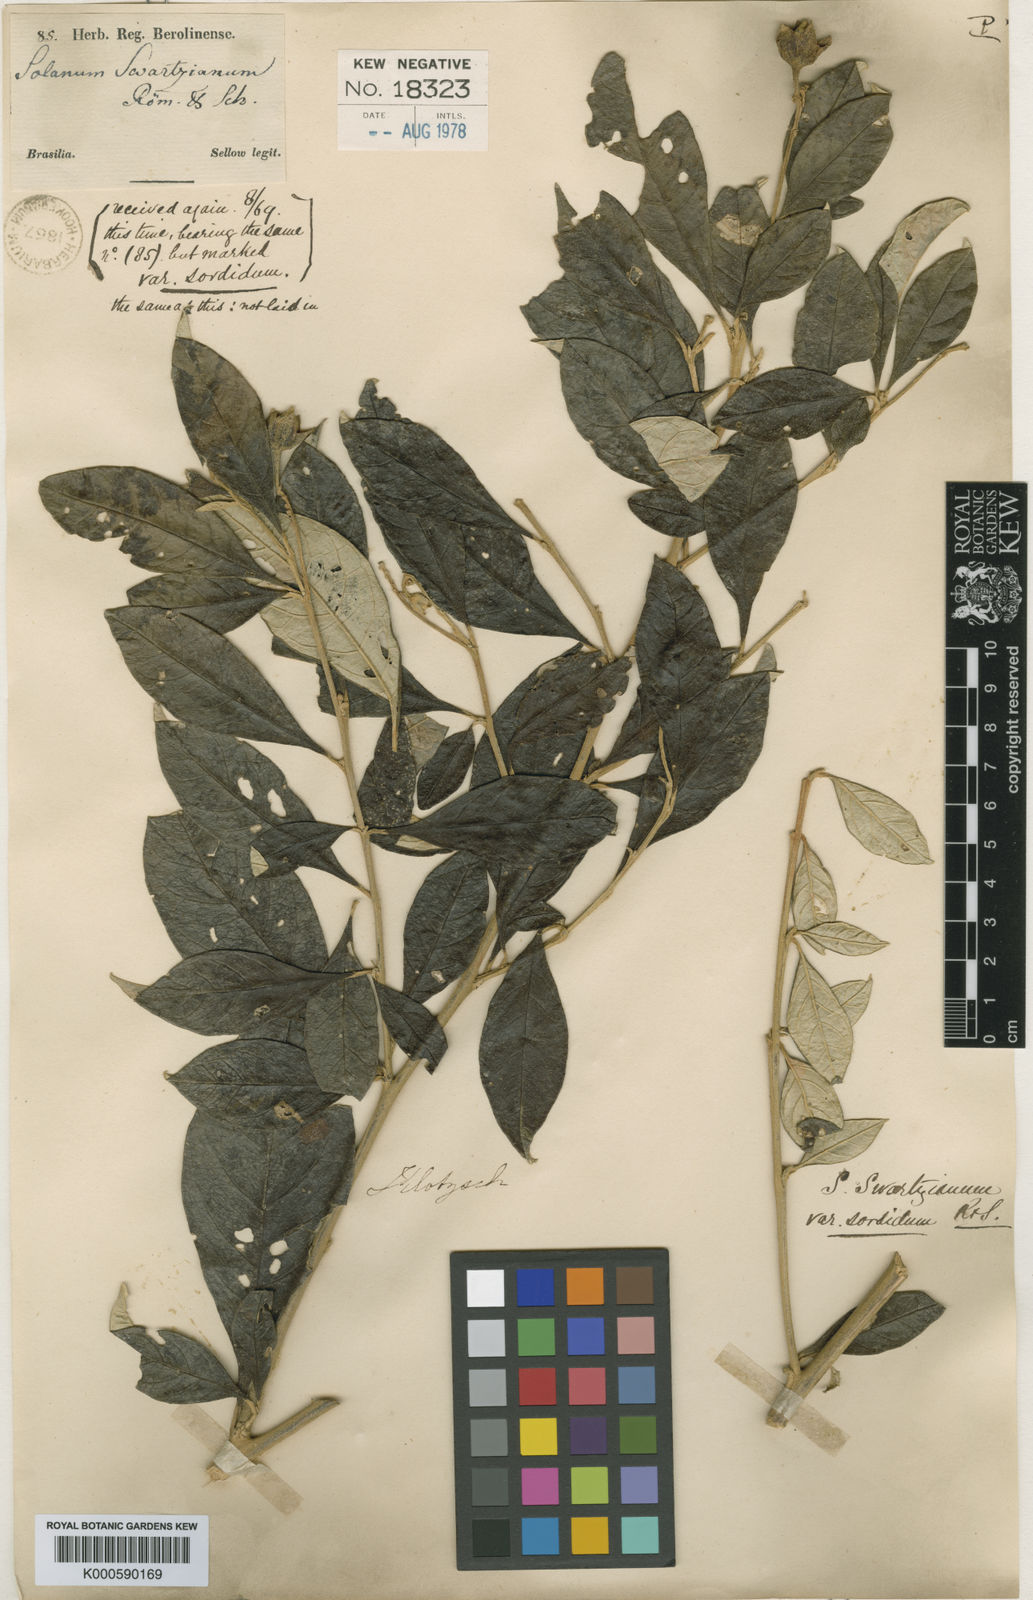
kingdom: Plantae
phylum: Tracheophyta
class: Magnoliopsida
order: Solanales
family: Solanaceae
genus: Solanum
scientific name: Solanum swartzianum
